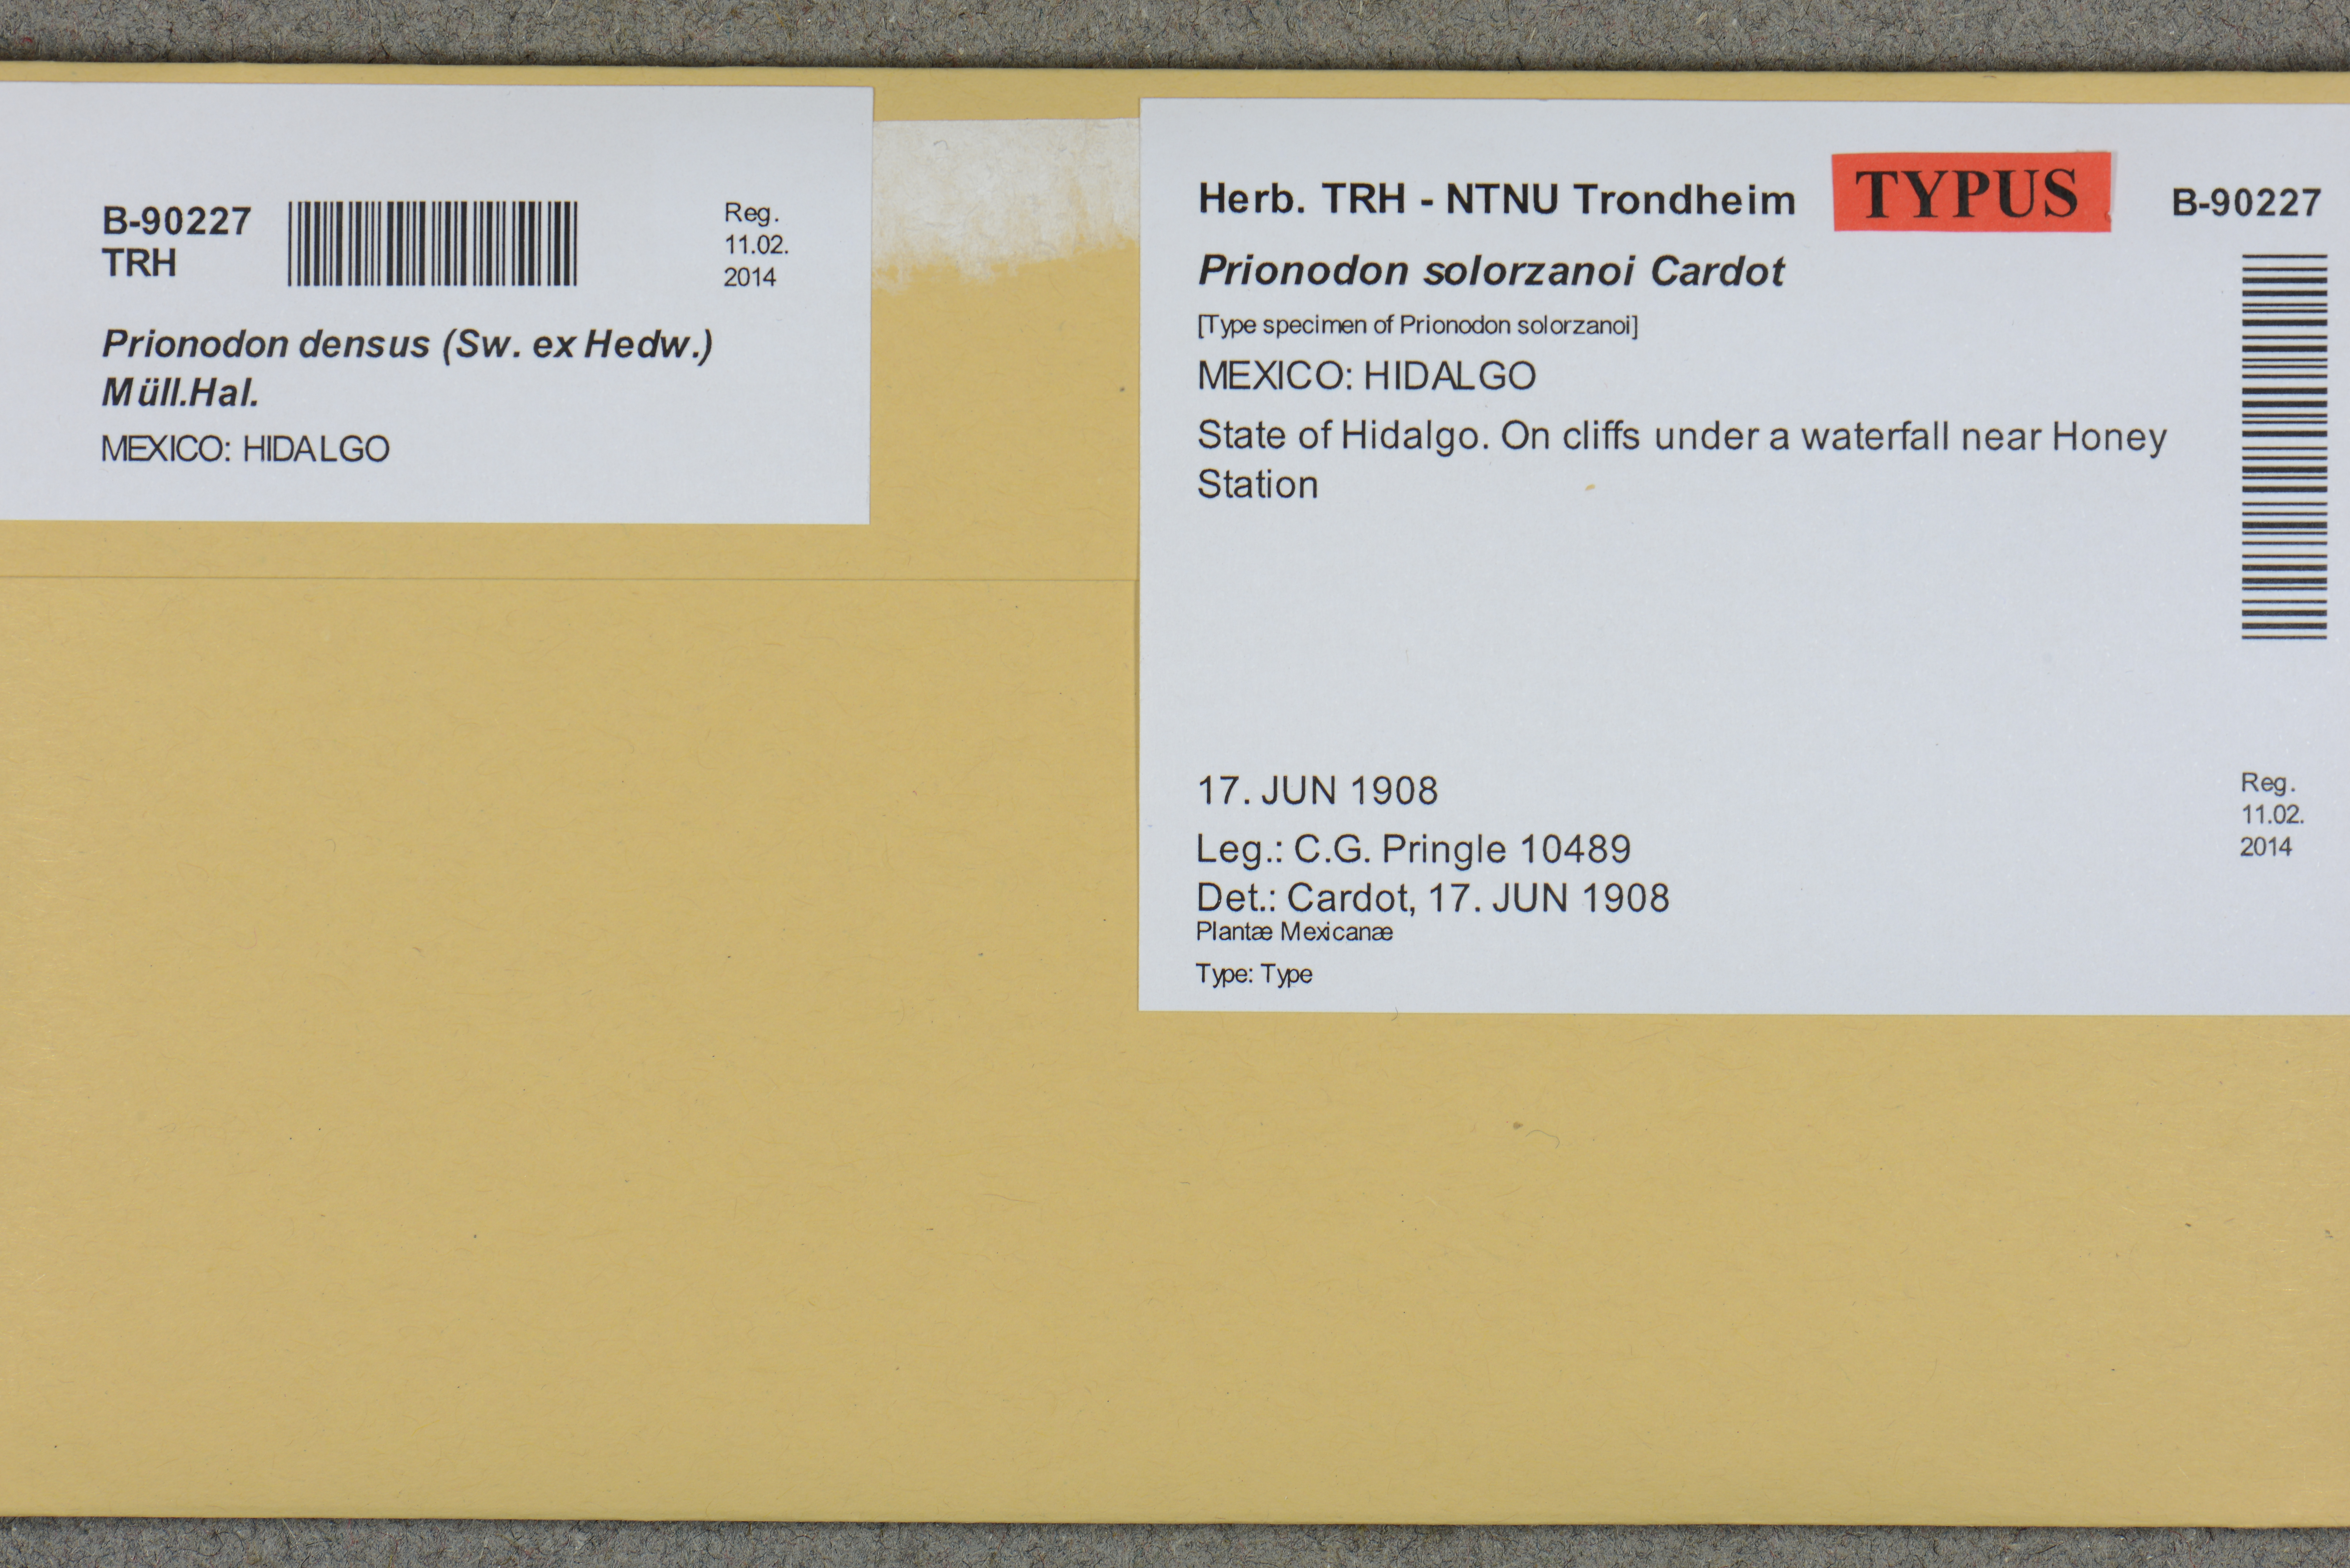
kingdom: Plantae
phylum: Bryophyta
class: Bryopsida
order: Hypnales
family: Prionodontaceae
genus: Prionodon
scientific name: Prionodon densus
